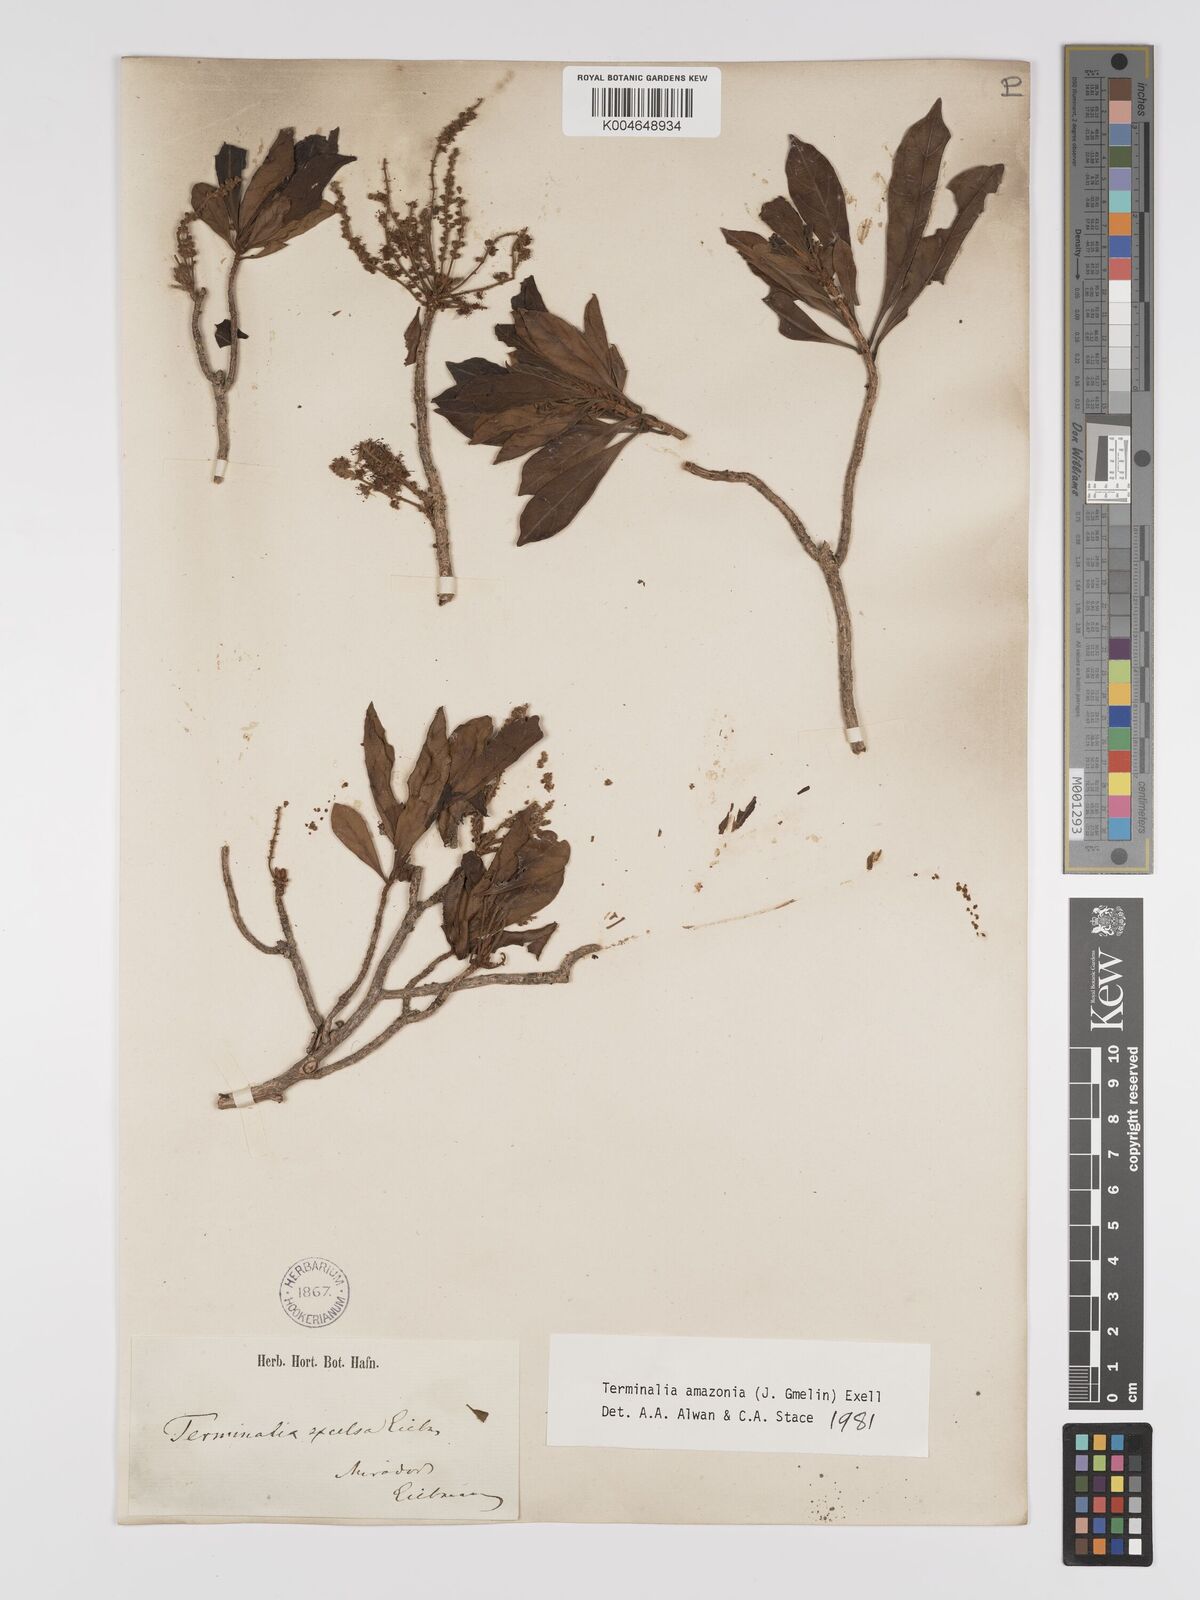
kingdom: Plantae
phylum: Tracheophyta
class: Magnoliopsida
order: Myrtales
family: Combretaceae
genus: Terminalia
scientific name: Terminalia amazonica
